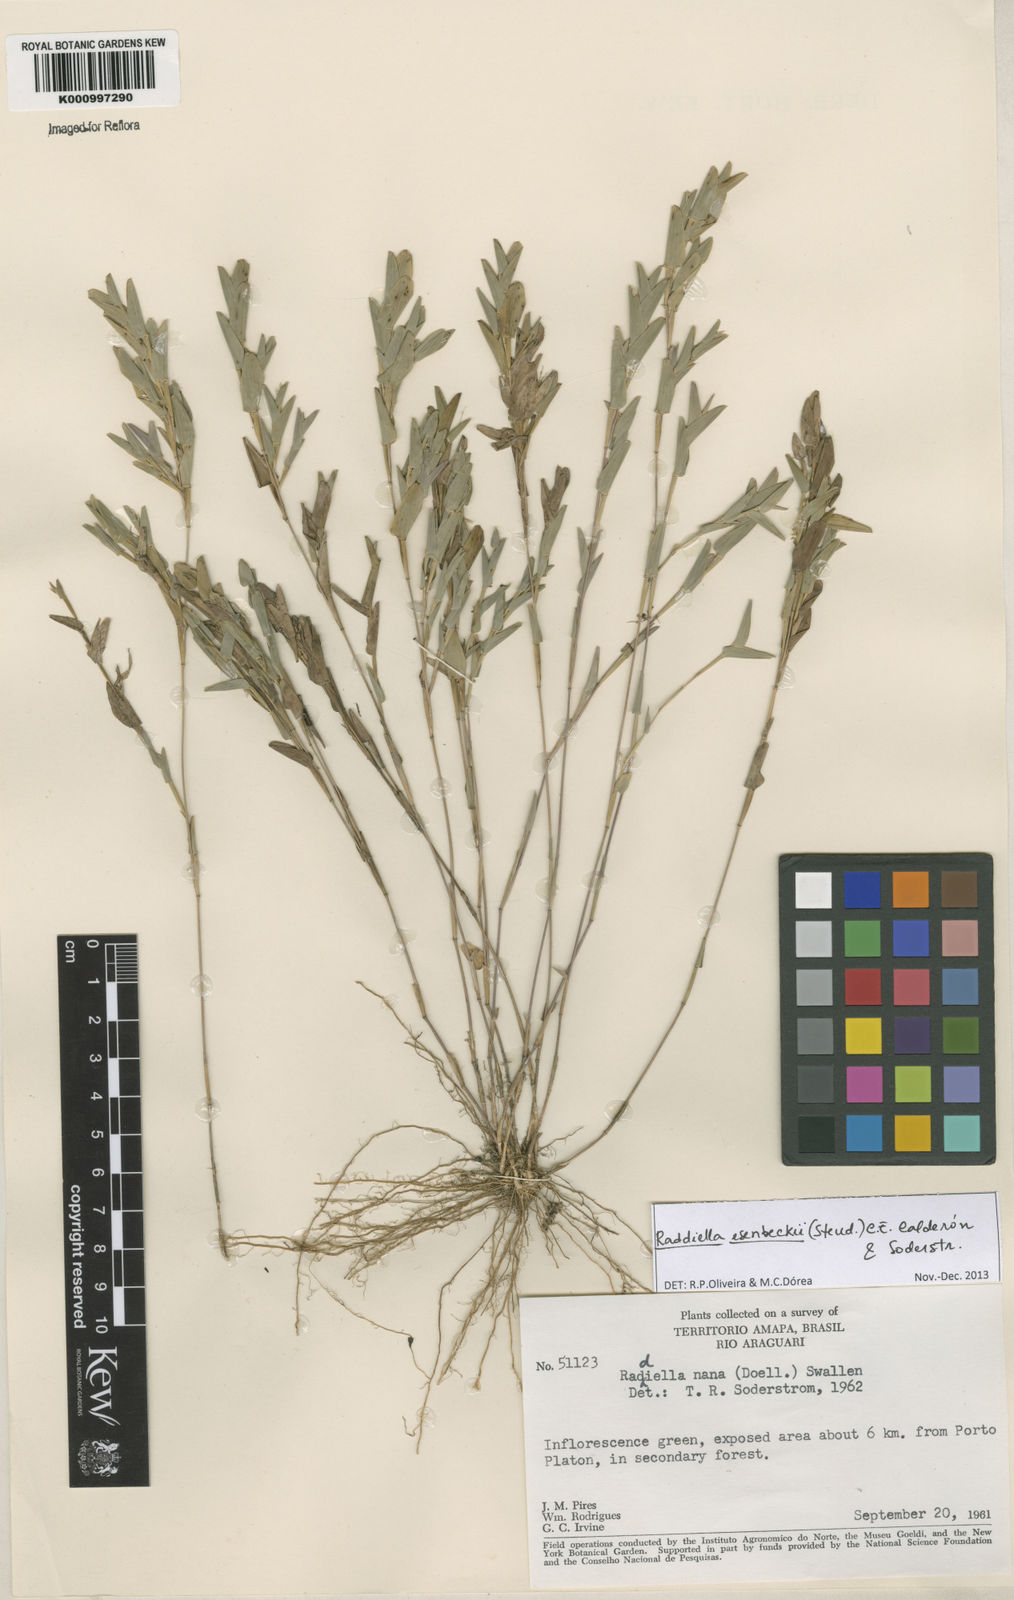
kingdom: Plantae
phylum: Tracheophyta
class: Liliopsida
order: Poales
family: Poaceae
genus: Raddiella
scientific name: Raddiella
